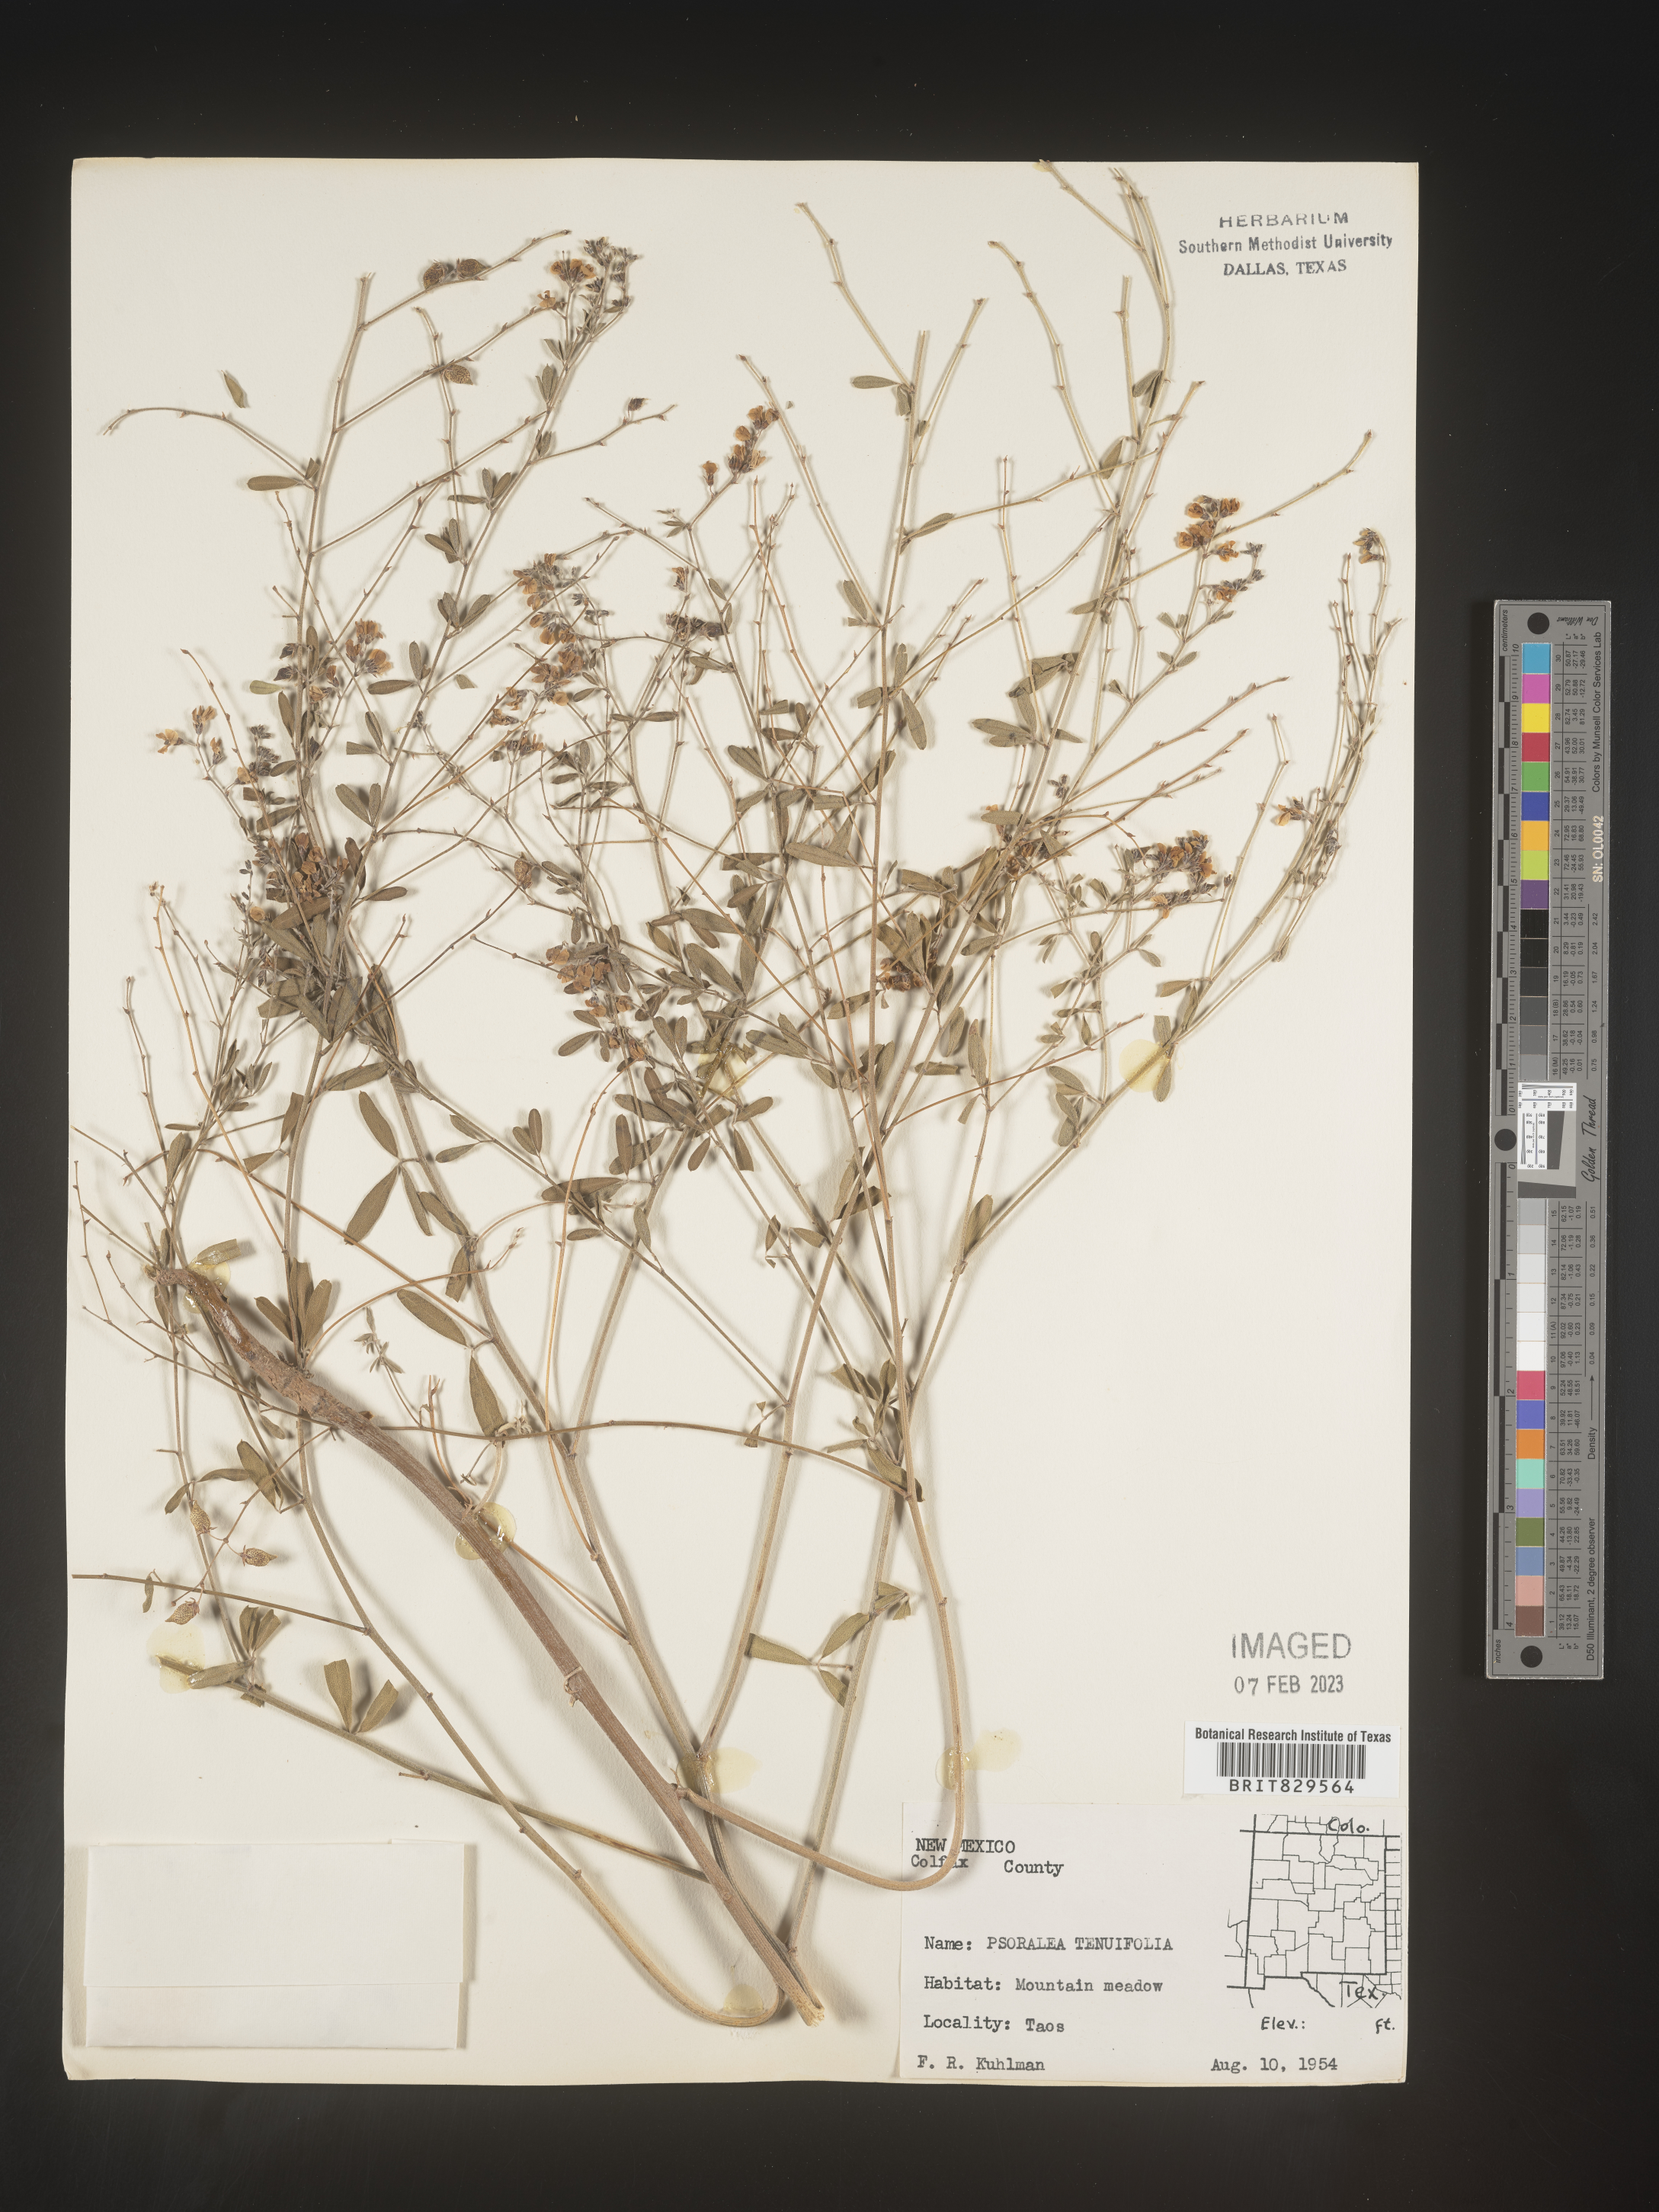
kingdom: Plantae
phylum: Tracheophyta
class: Magnoliopsida
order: Fabales
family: Fabaceae
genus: Pediomelum
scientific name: Pediomelum tenuiflorum
